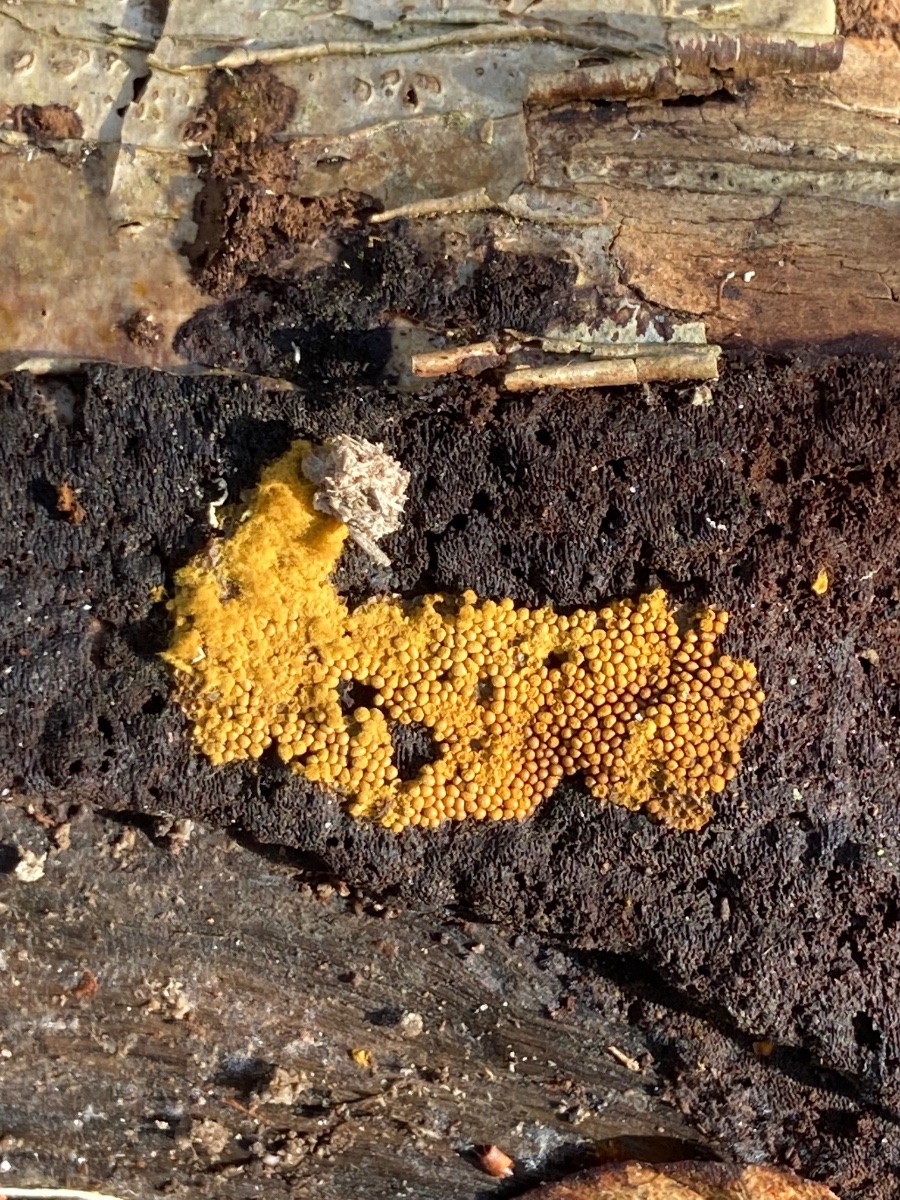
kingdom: Protozoa
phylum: Mycetozoa
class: Myxomycetes
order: Trichiales
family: Trichiaceae
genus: Oligonema
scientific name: Oligonema persimile
